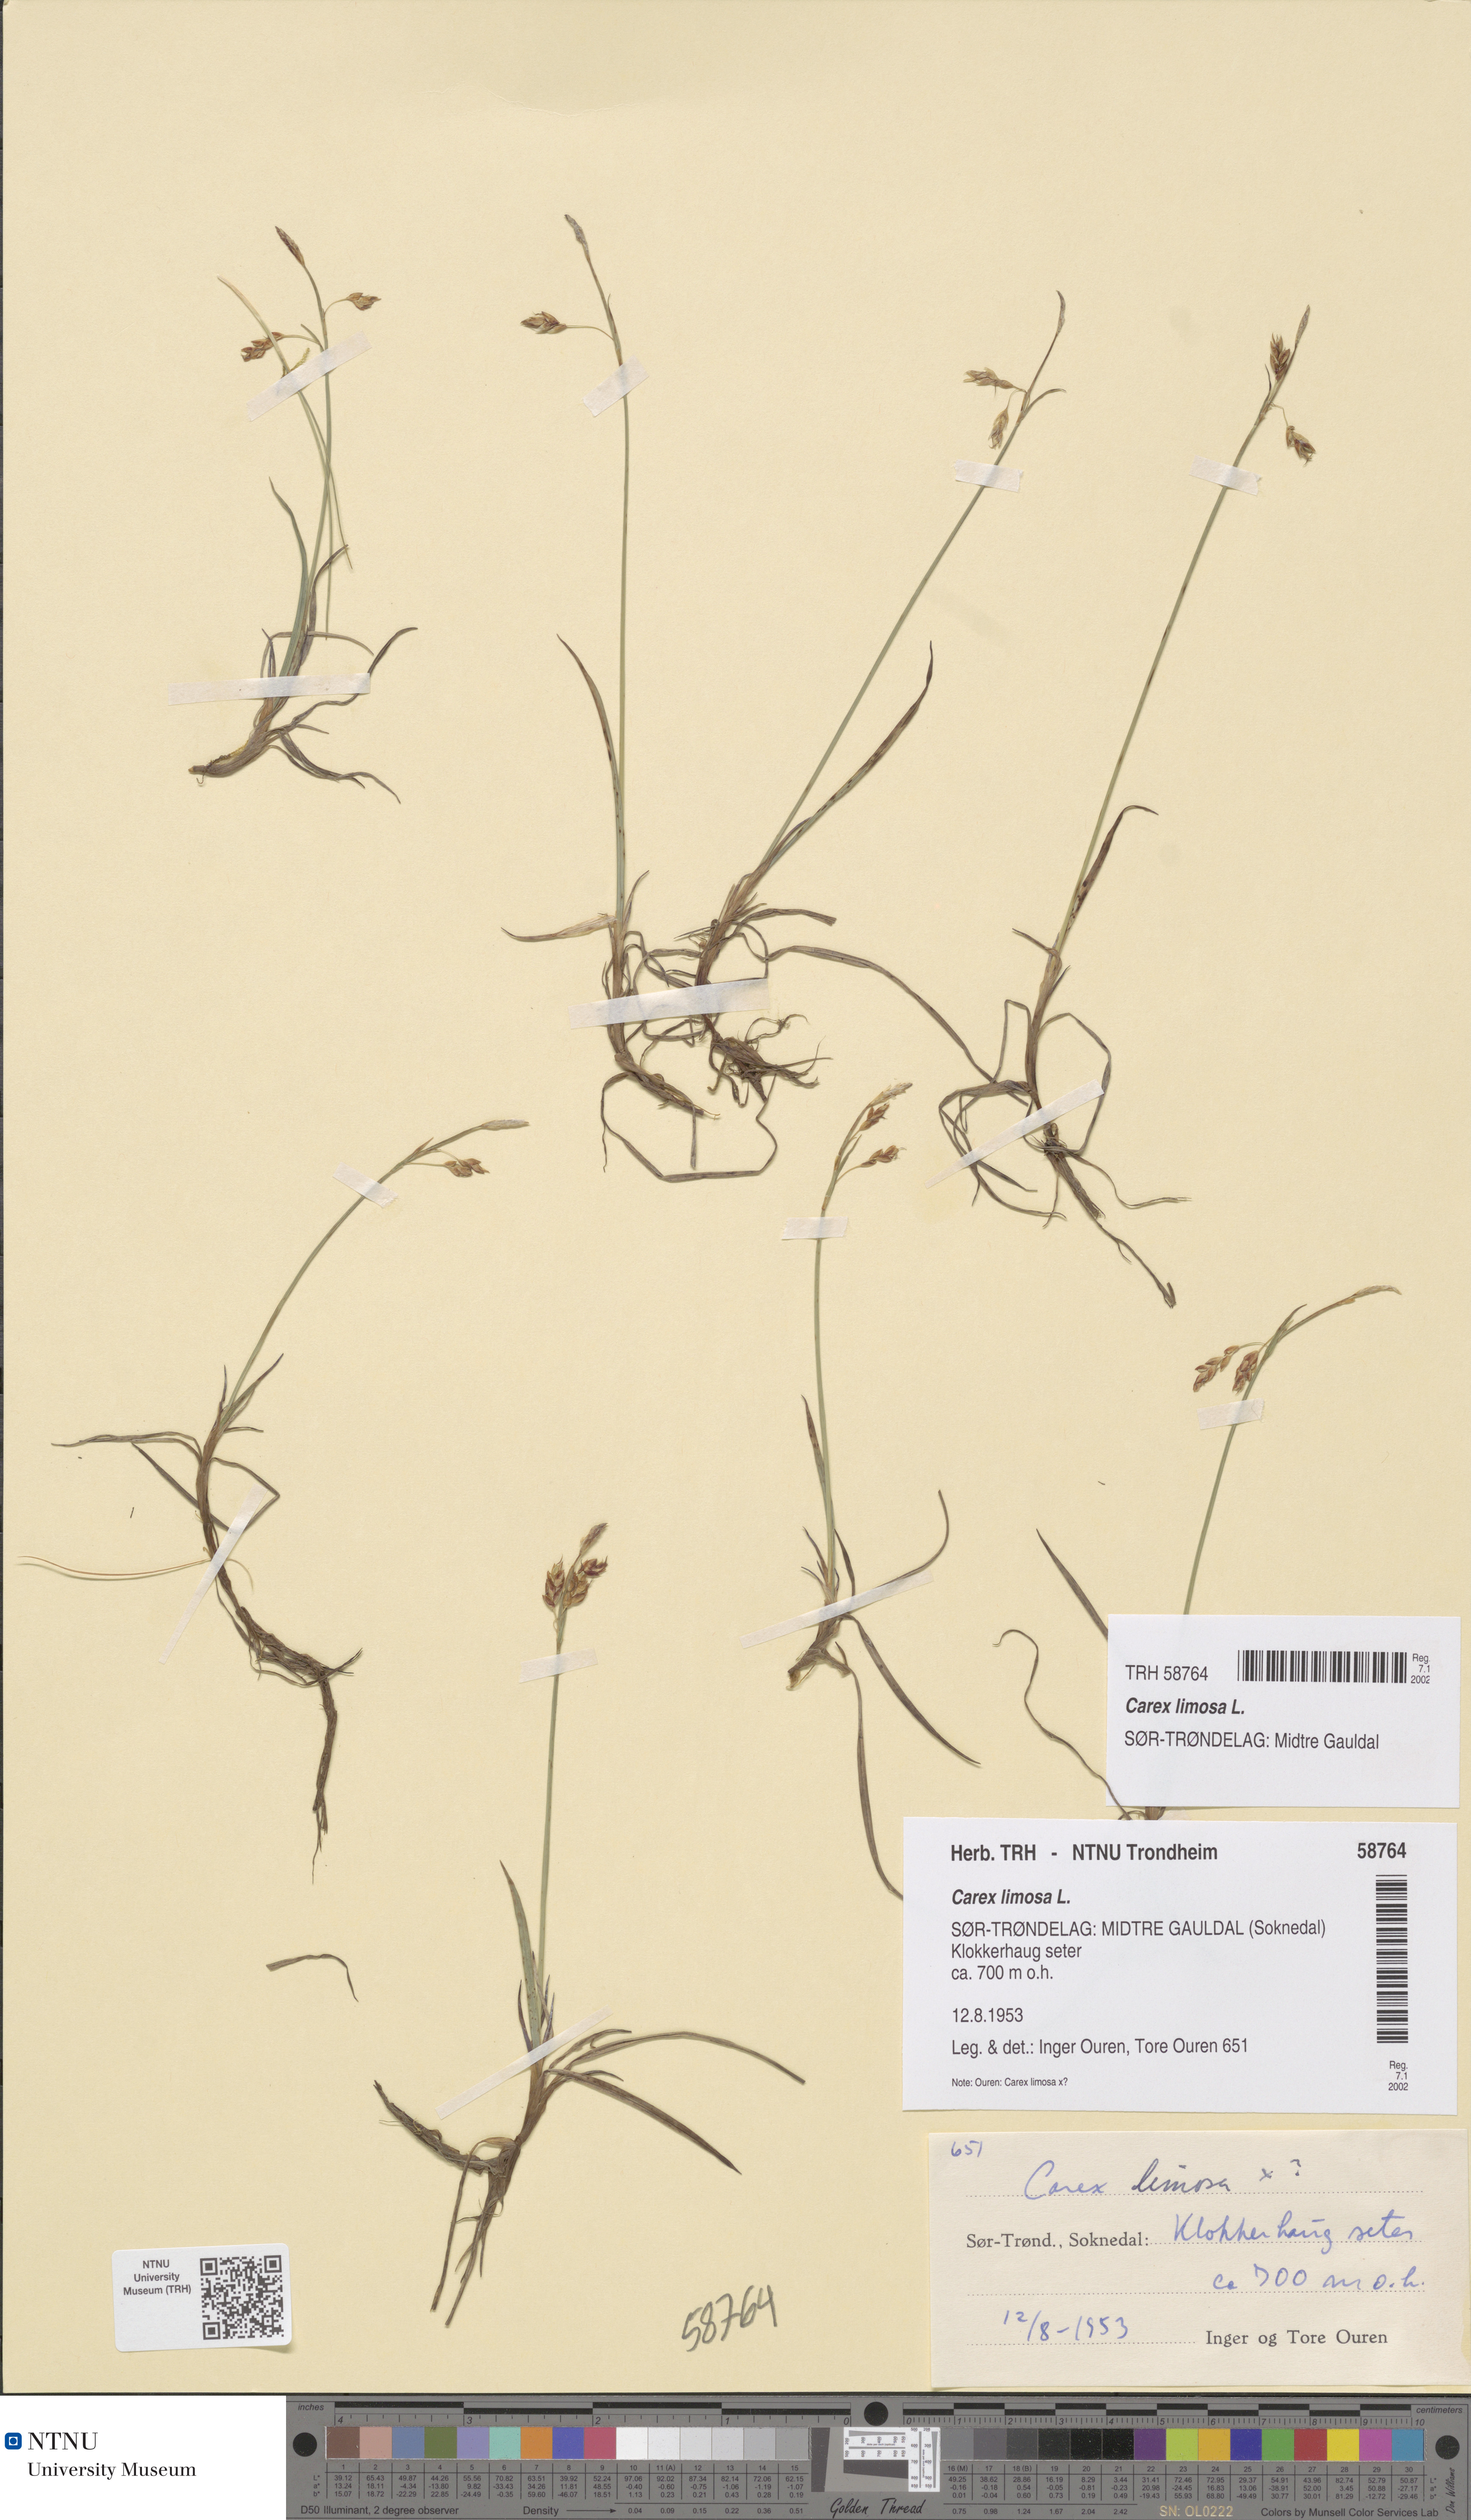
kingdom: Plantae
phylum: Tracheophyta
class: Liliopsida
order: Poales
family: Cyperaceae
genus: Carex
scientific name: Carex limosa
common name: Bog sedge
